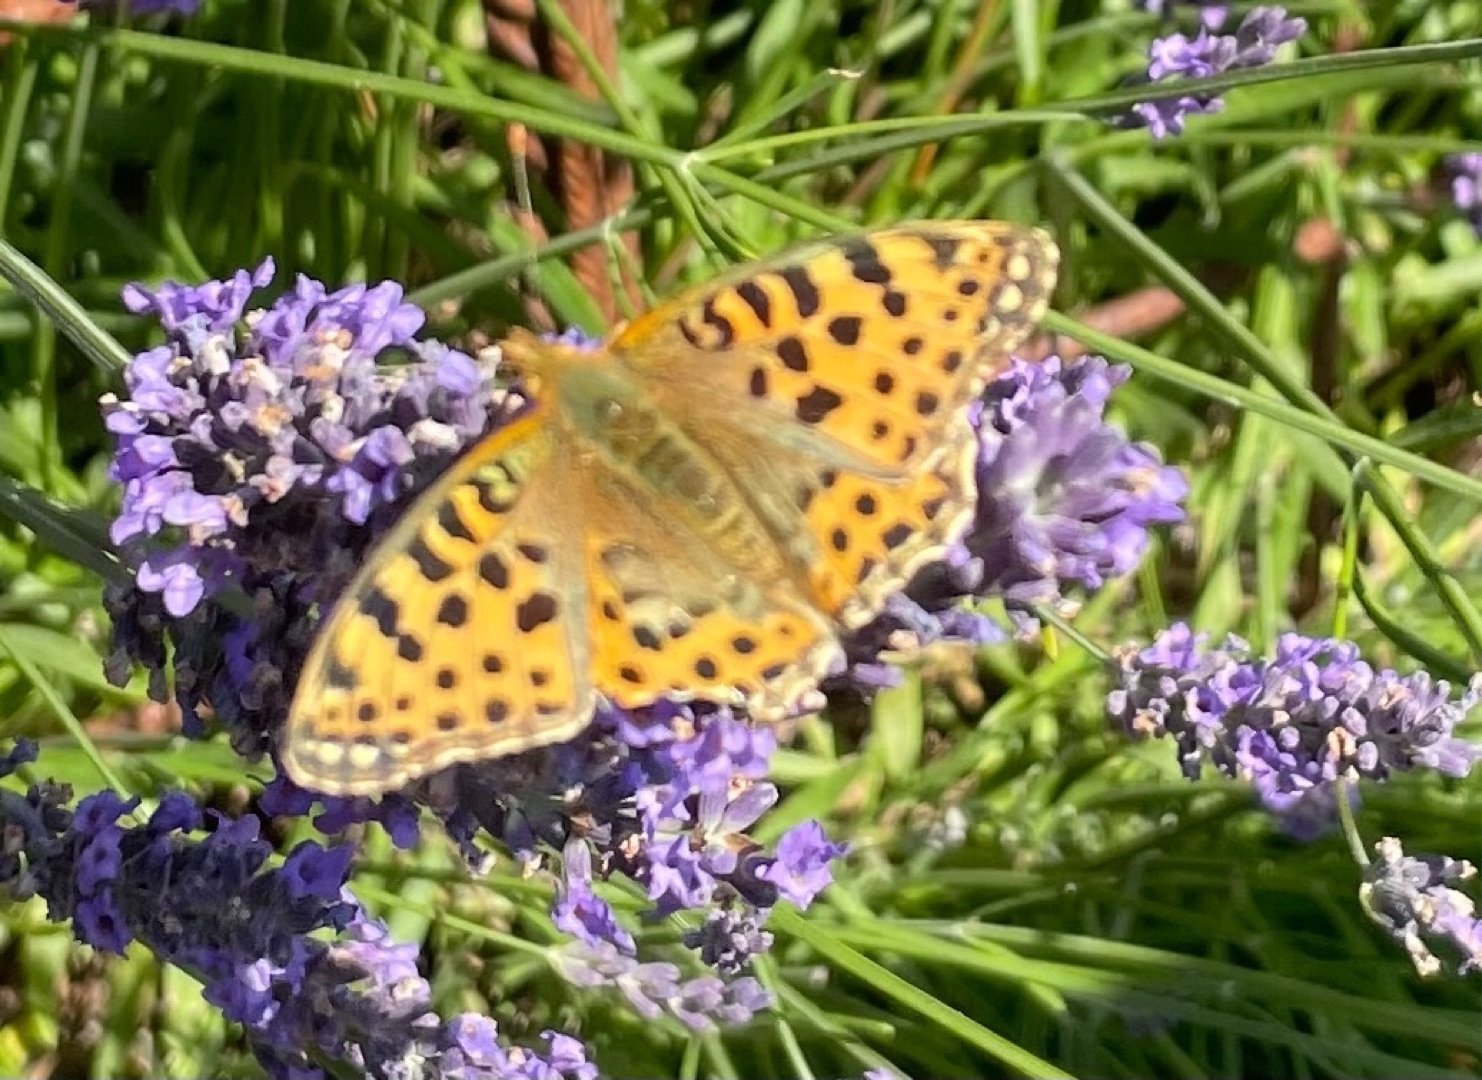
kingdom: Animalia
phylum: Arthropoda
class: Insecta
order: Lepidoptera
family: Nymphalidae
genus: Issoria
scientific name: Issoria lathonia
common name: Storplettet perlemorsommerfugl
